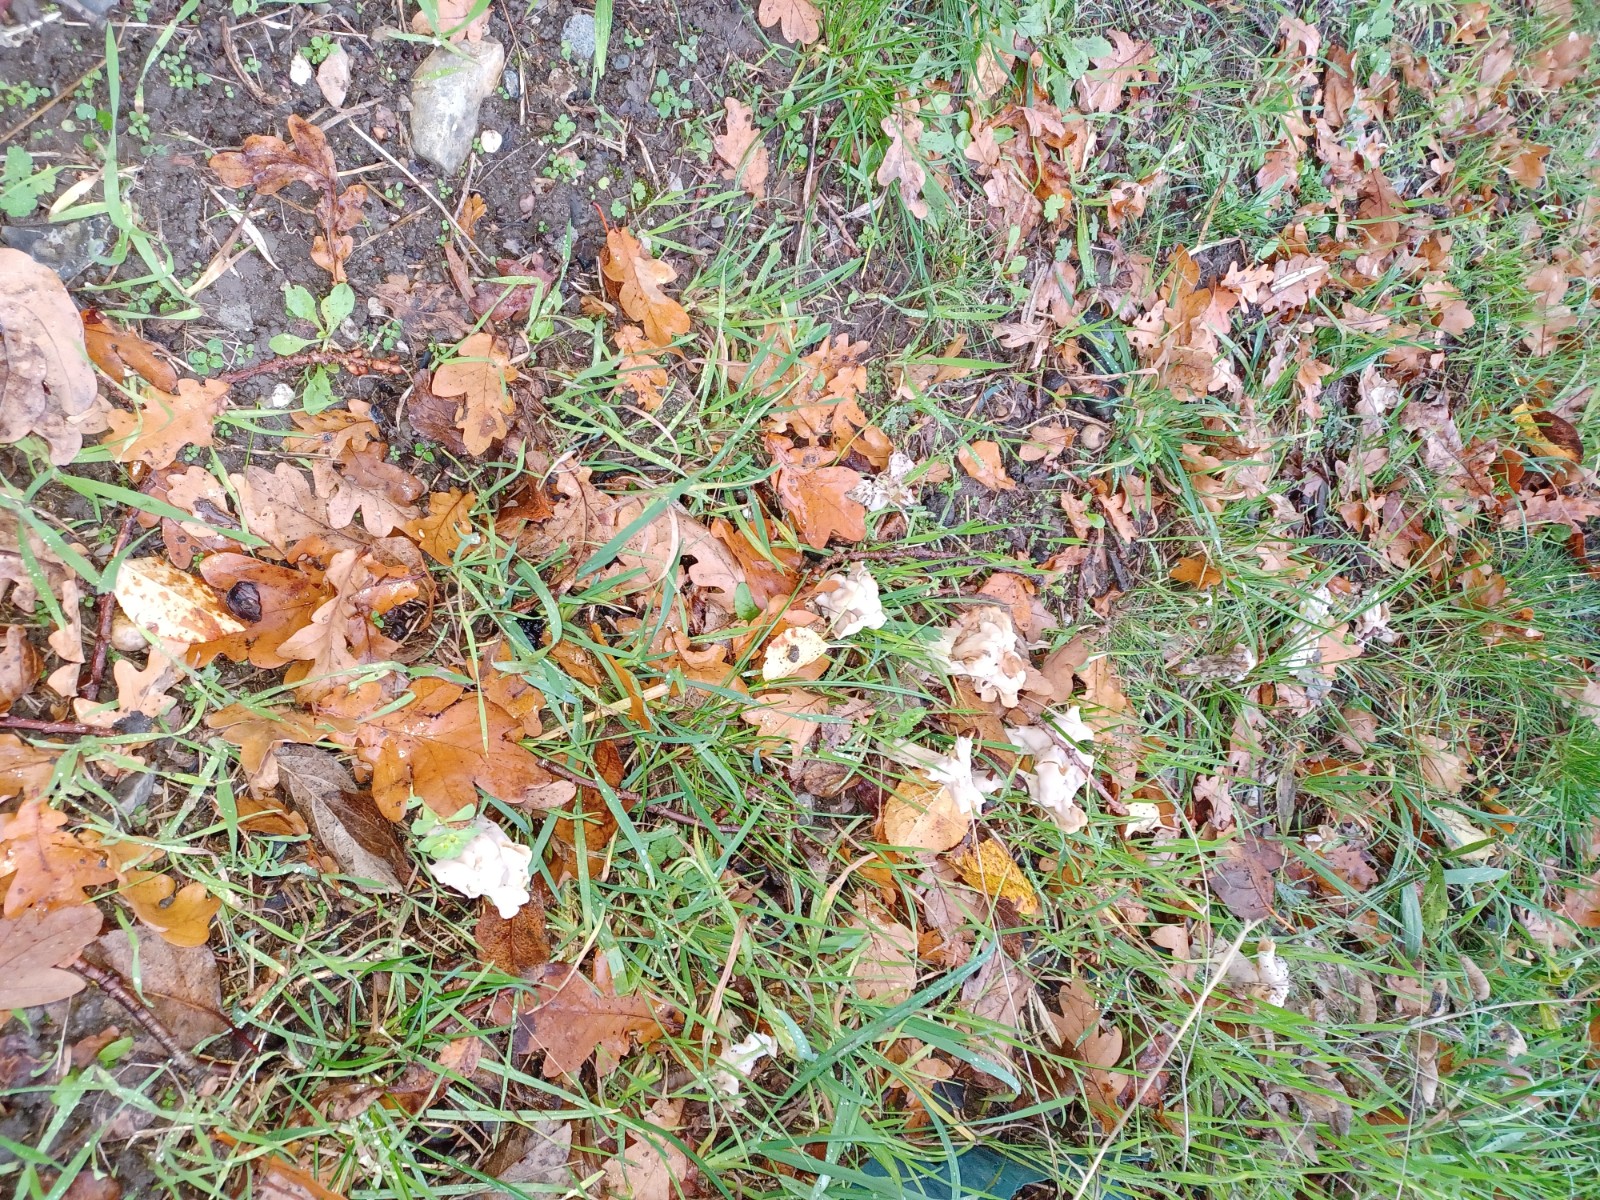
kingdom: Fungi
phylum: Ascomycota
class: Pezizomycetes
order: Pezizales
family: Helvellaceae
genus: Helvella
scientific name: Helvella crispa
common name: kruset foldhat
